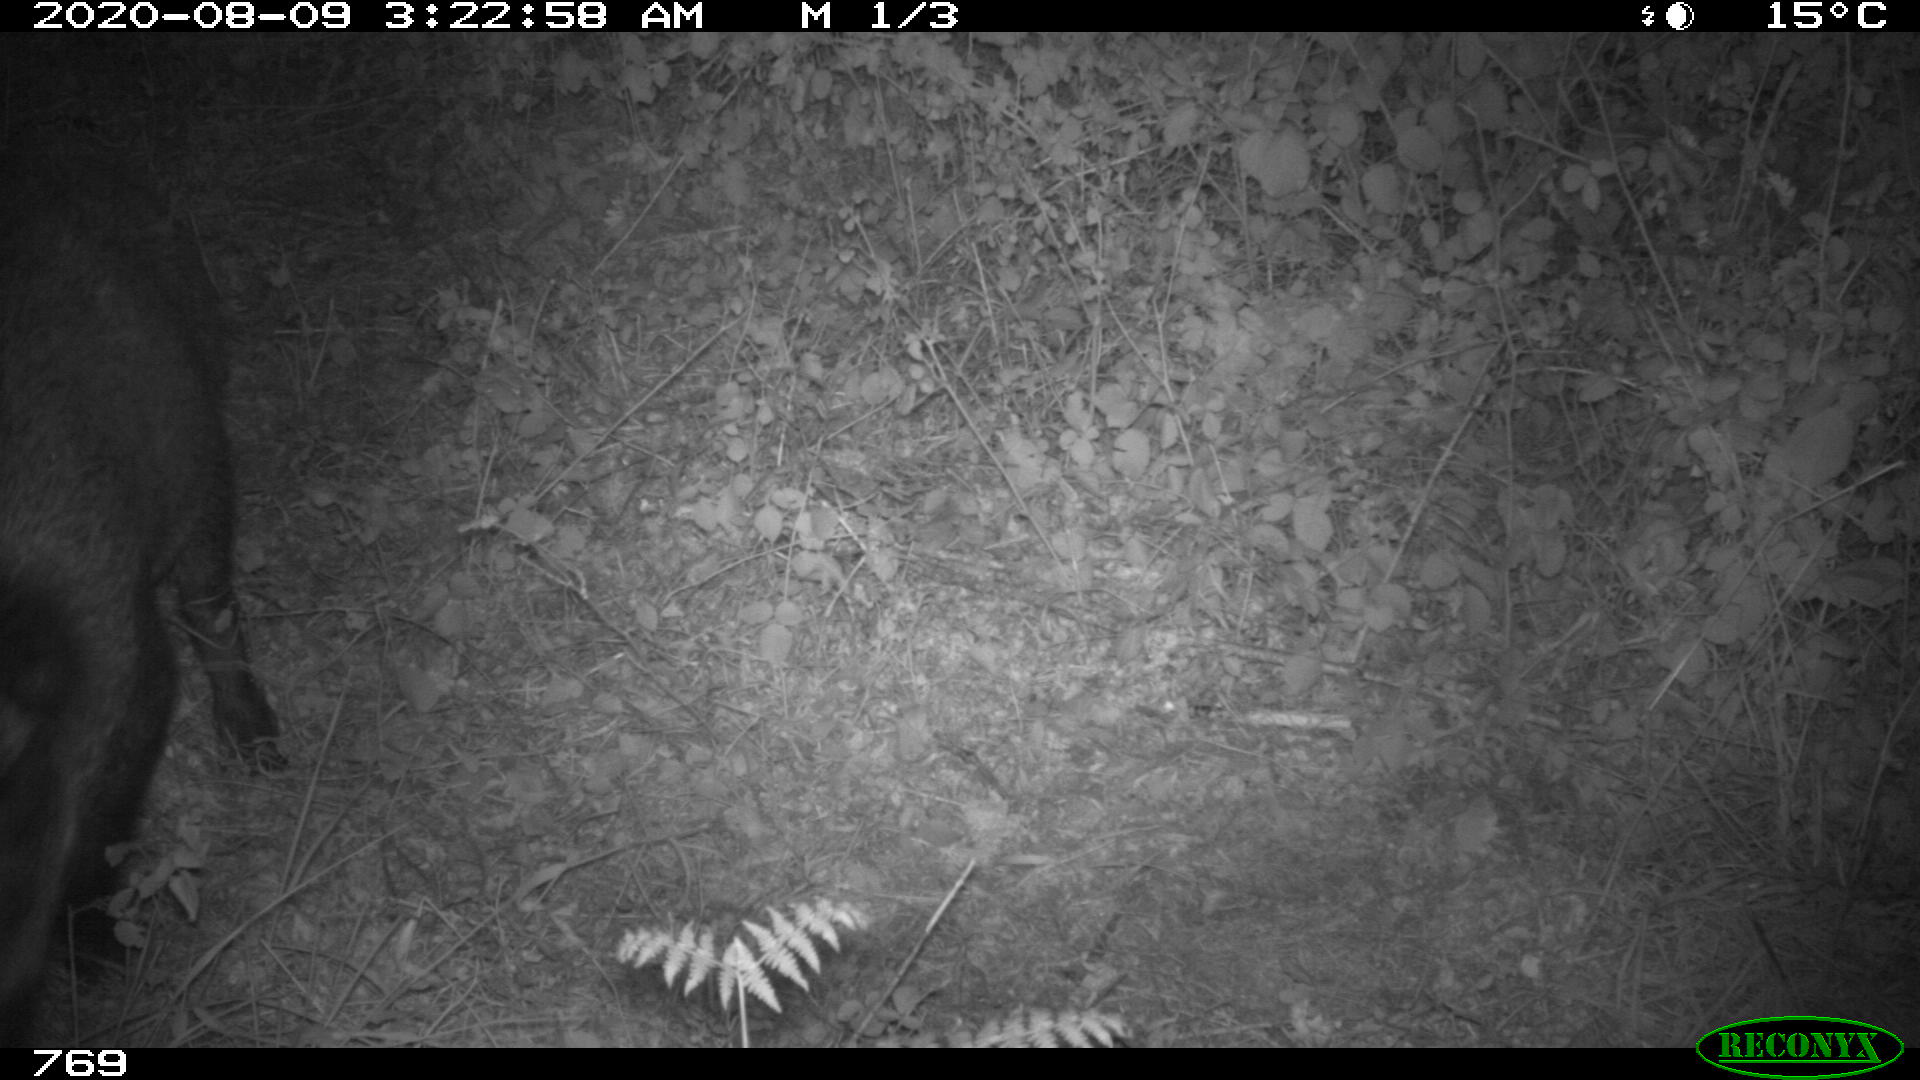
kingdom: Animalia
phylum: Chordata
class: Mammalia
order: Artiodactyla
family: Suidae
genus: Sus
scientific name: Sus scrofa
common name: Wild boar
